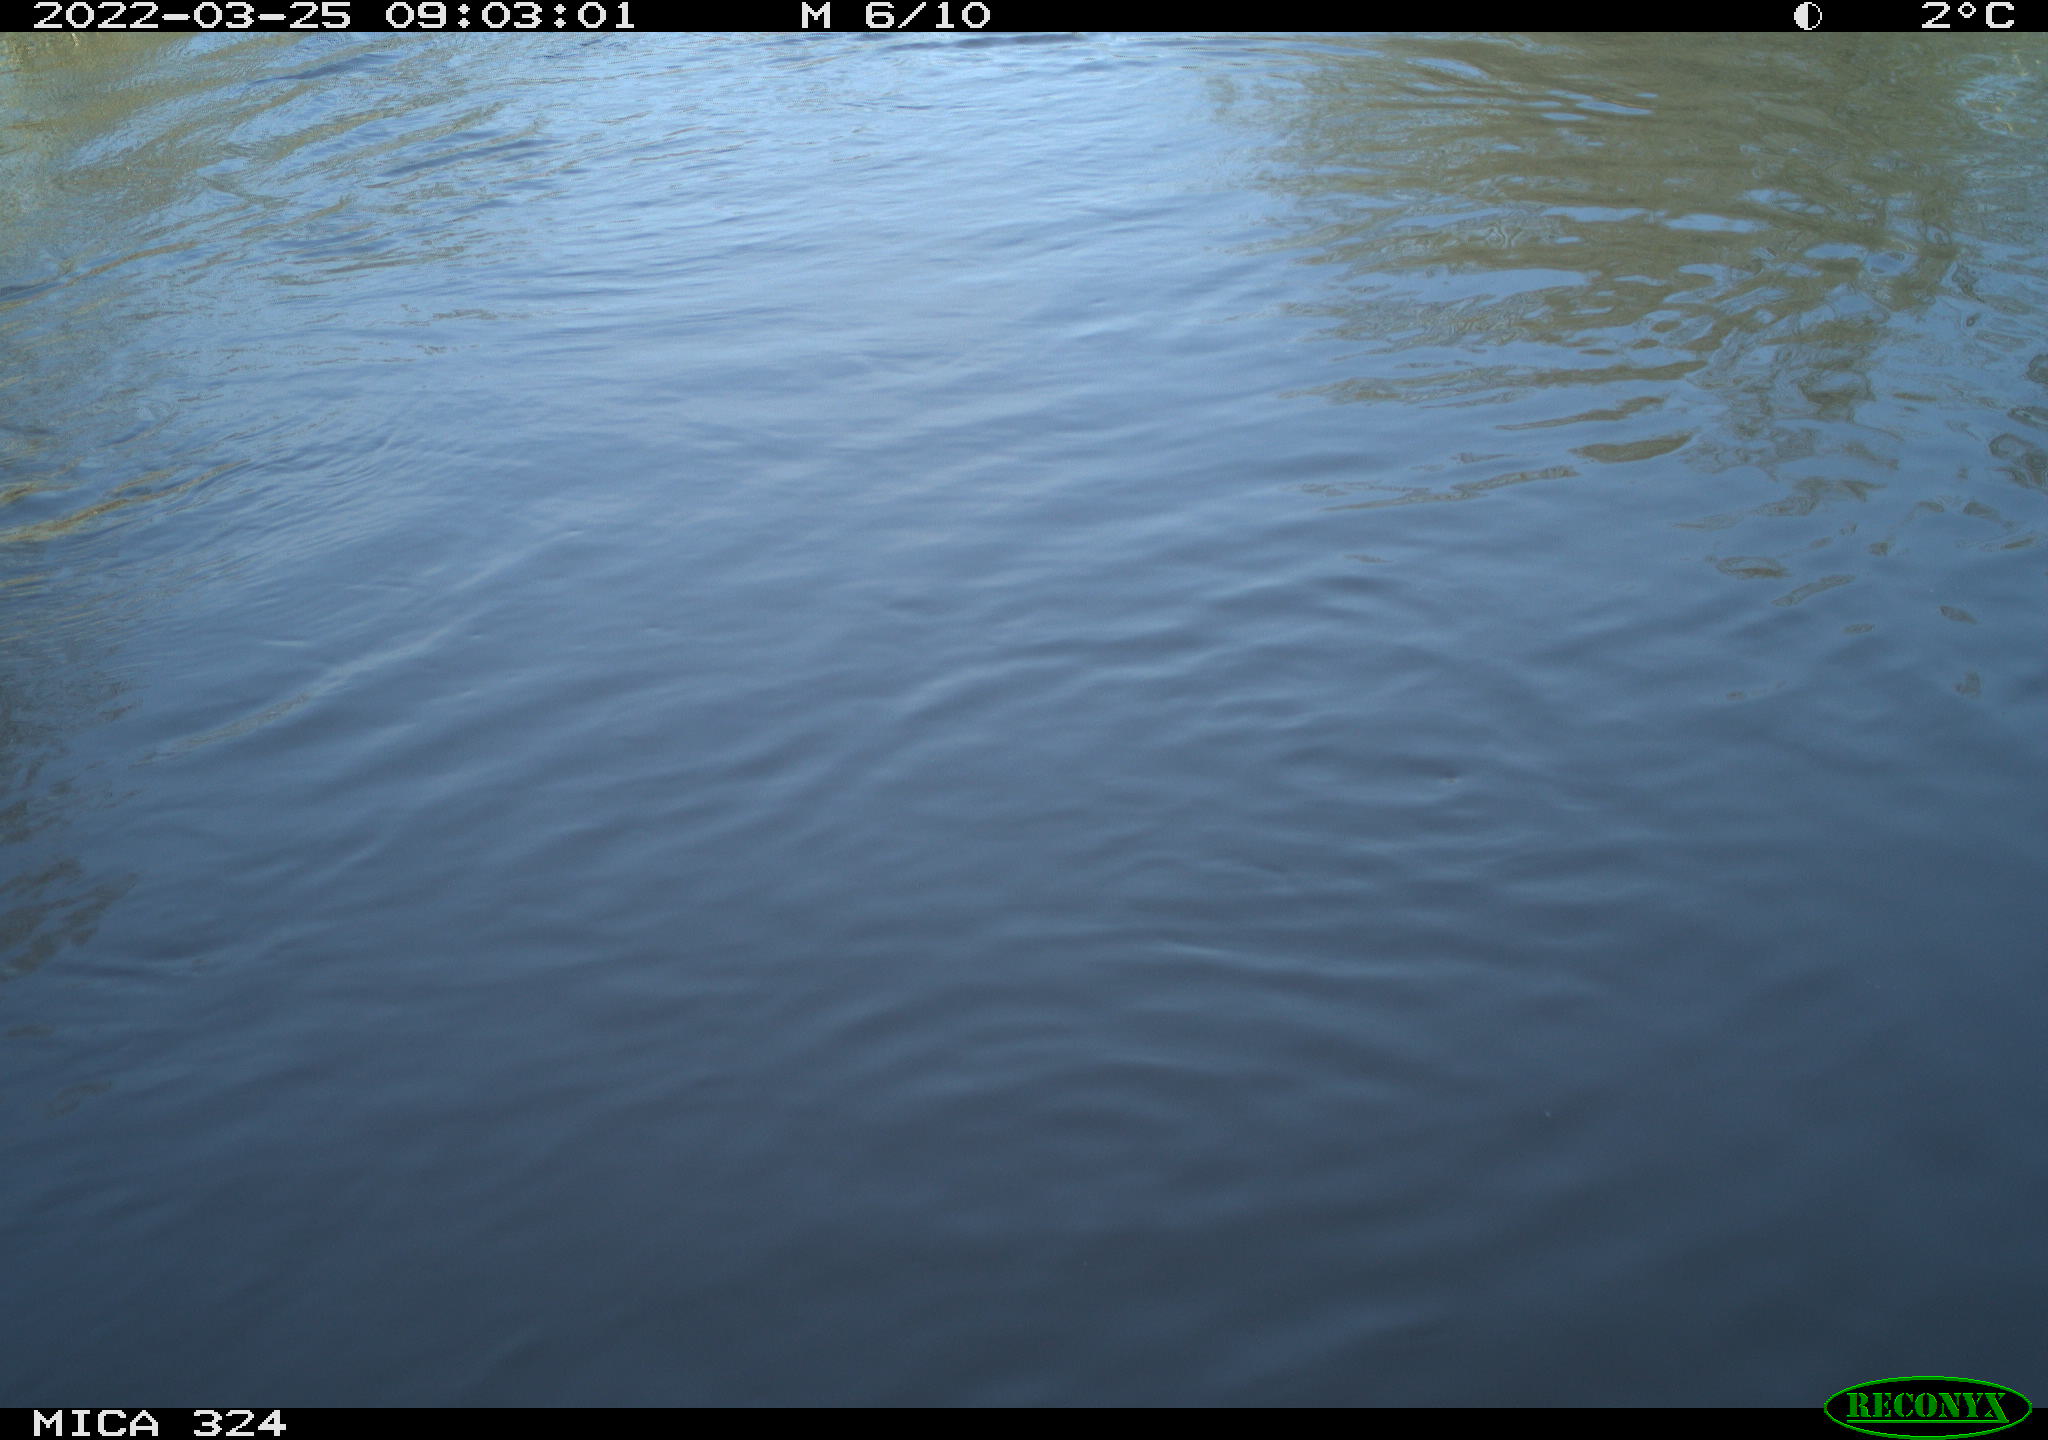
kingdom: Animalia
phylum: Chordata
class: Mammalia
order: Rodentia
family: Cricetidae
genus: Ondatra
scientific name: Ondatra zibethicus
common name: Muskrat
